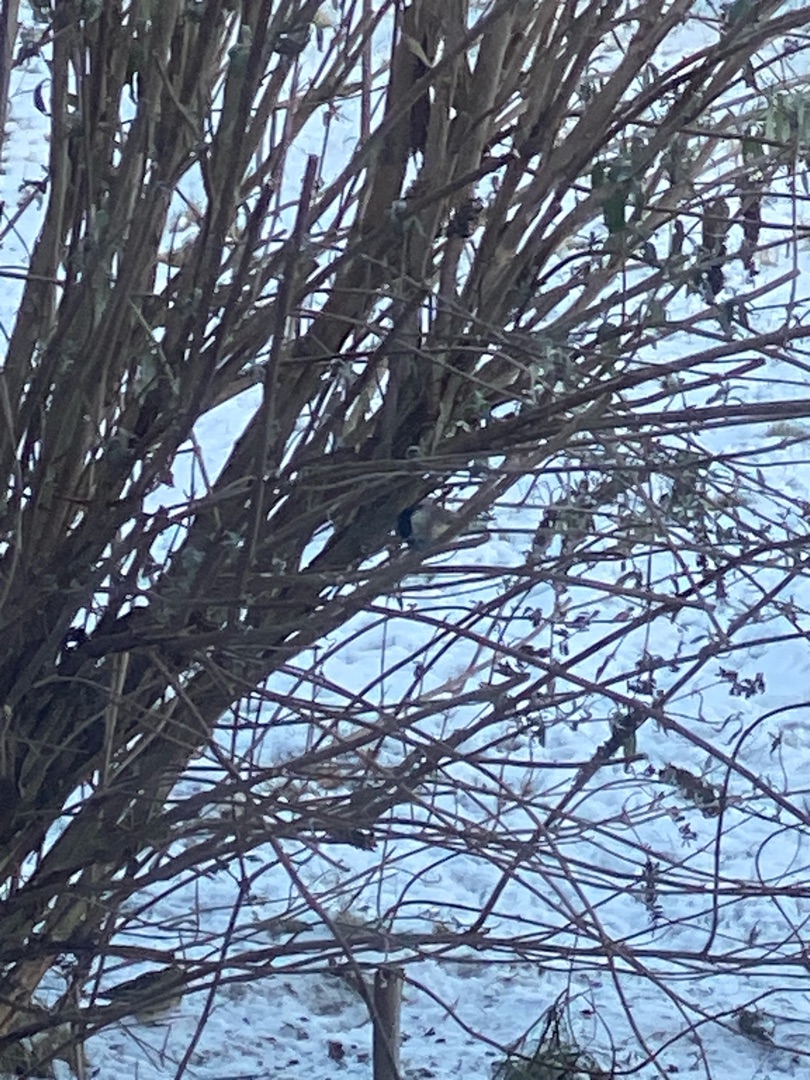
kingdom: Animalia
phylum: Chordata
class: Aves
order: Passeriformes
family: Paridae
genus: Poecile
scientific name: Poecile palustris
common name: Sumpmejse
